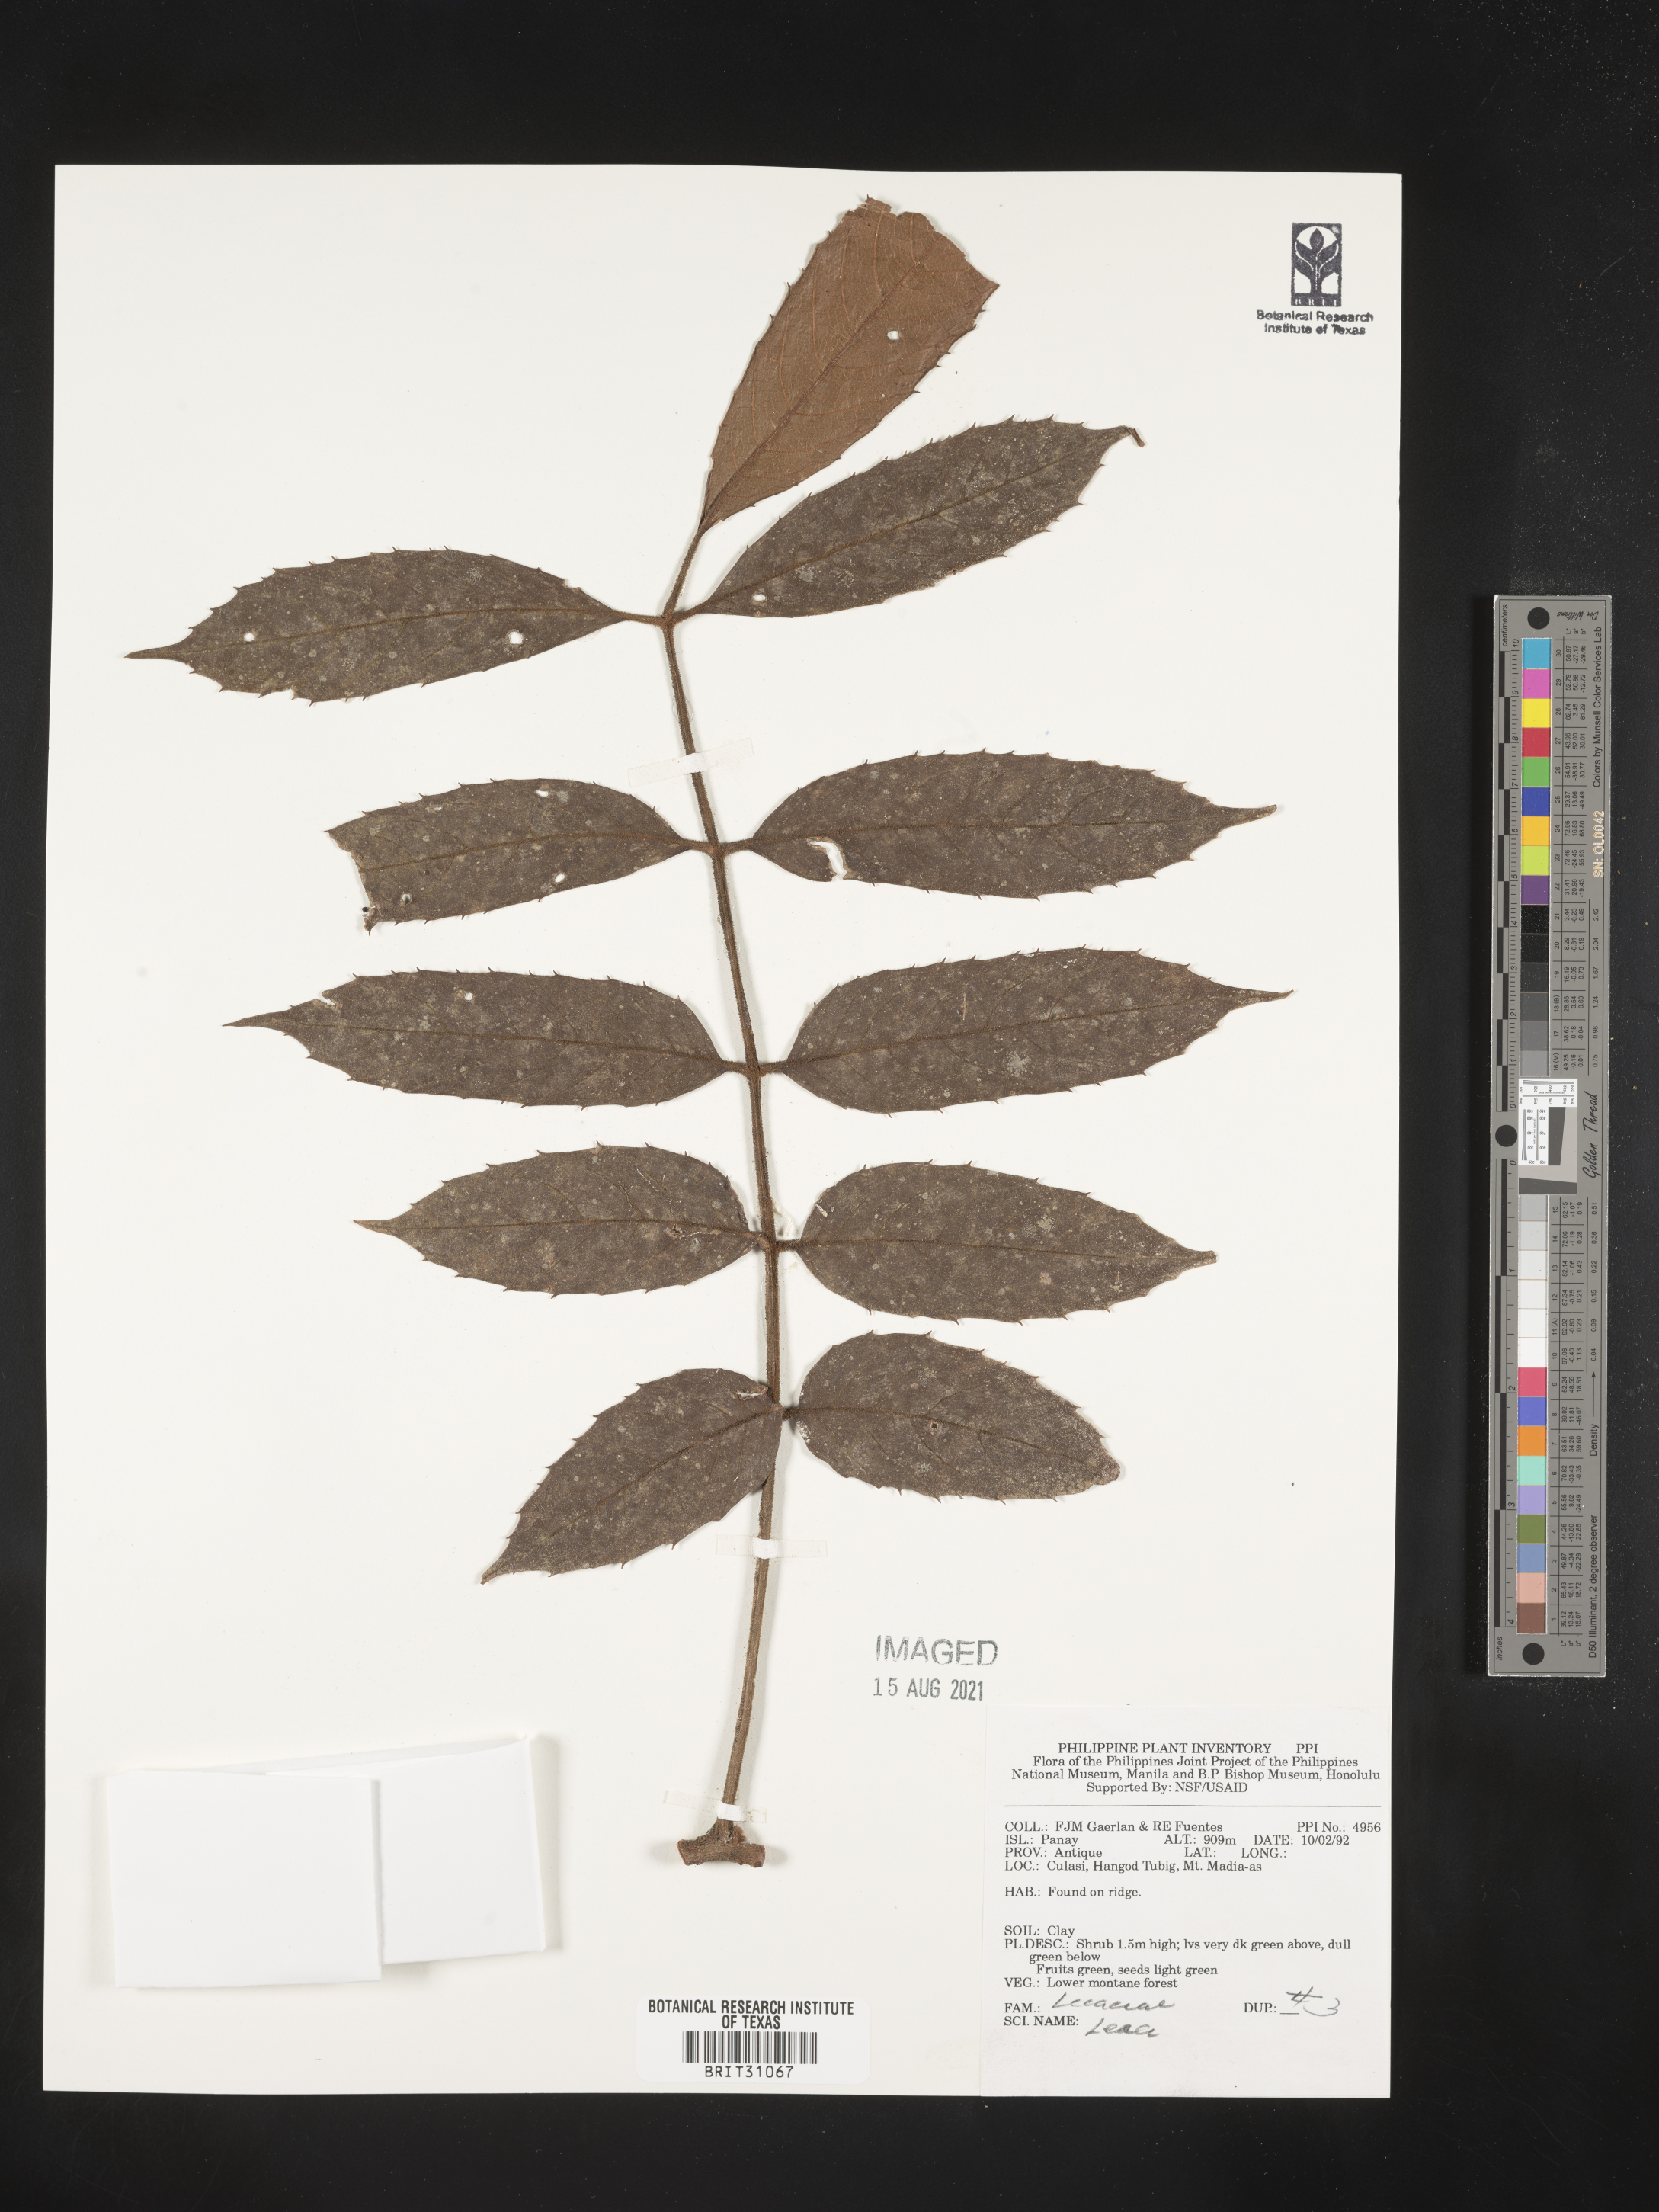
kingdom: Plantae
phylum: Tracheophyta
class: Magnoliopsida
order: Vitales
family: Vitaceae
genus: Leea
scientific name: Leea
